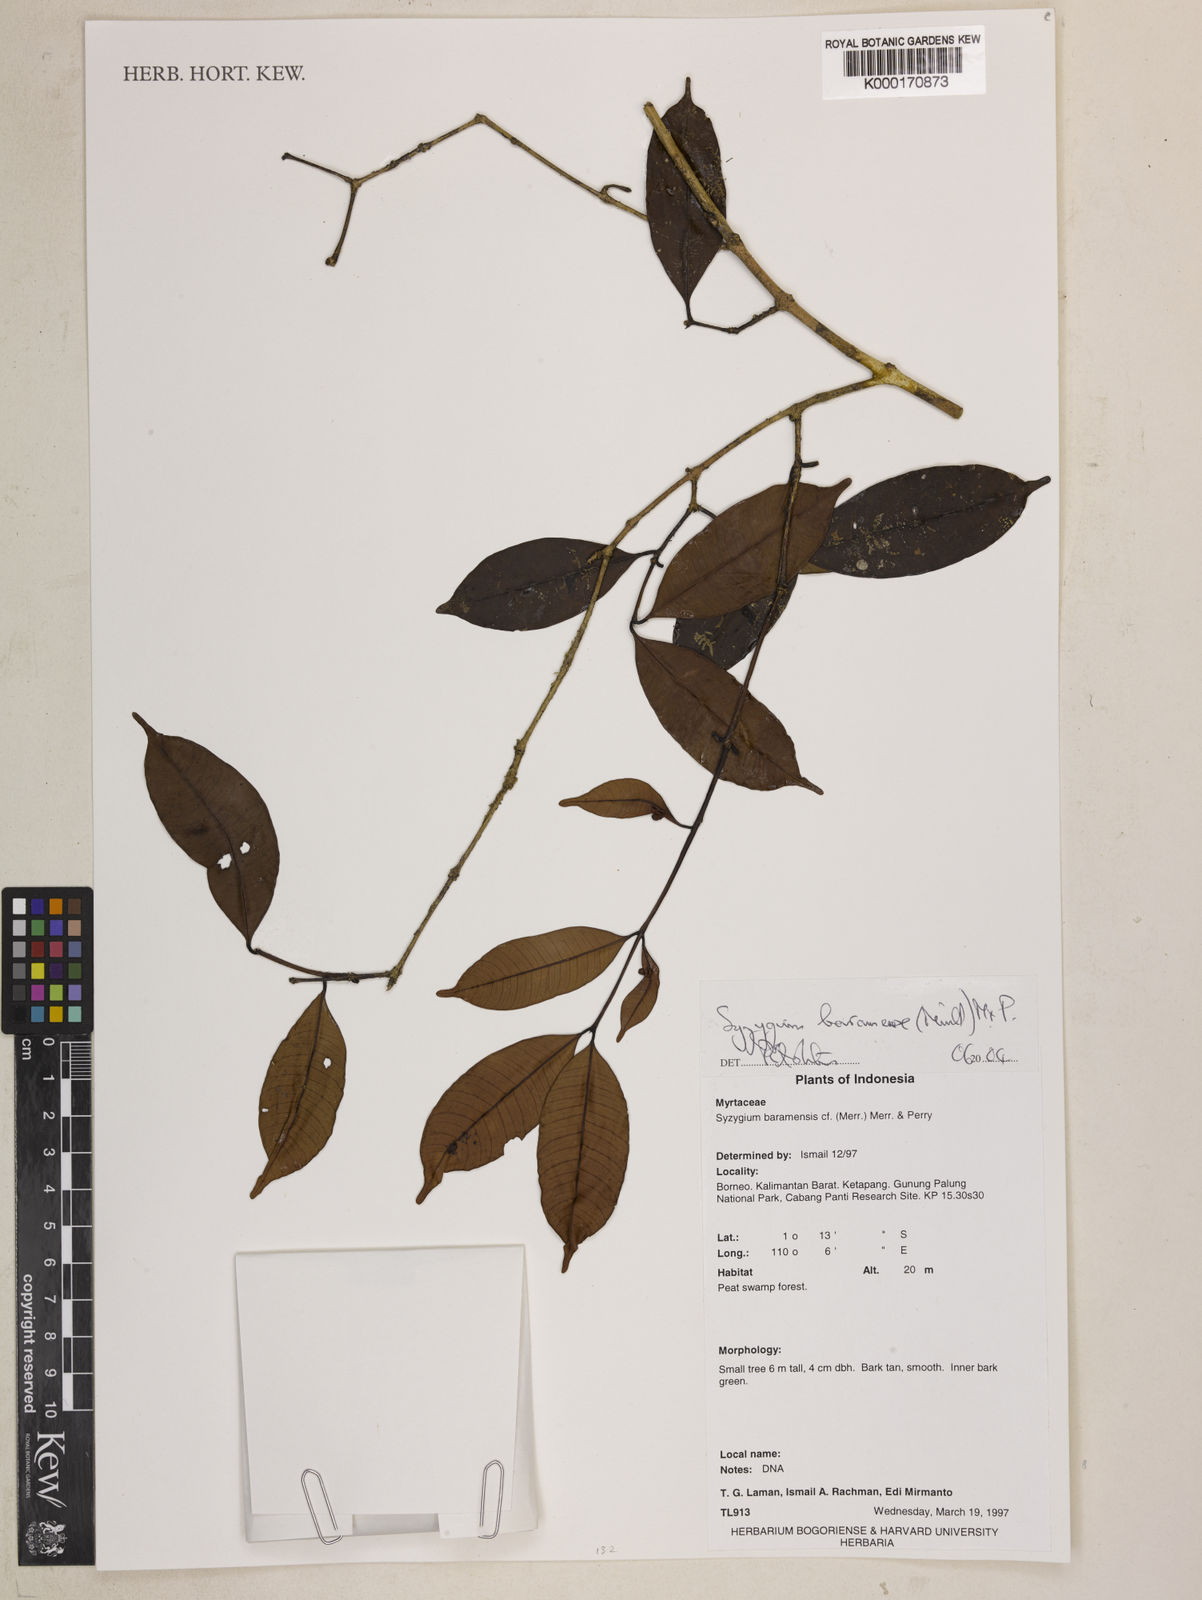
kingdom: Plantae
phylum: Tracheophyta
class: Magnoliopsida
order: Myrtales
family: Myrtaceae
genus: Syzygium
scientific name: Syzygium baramense
